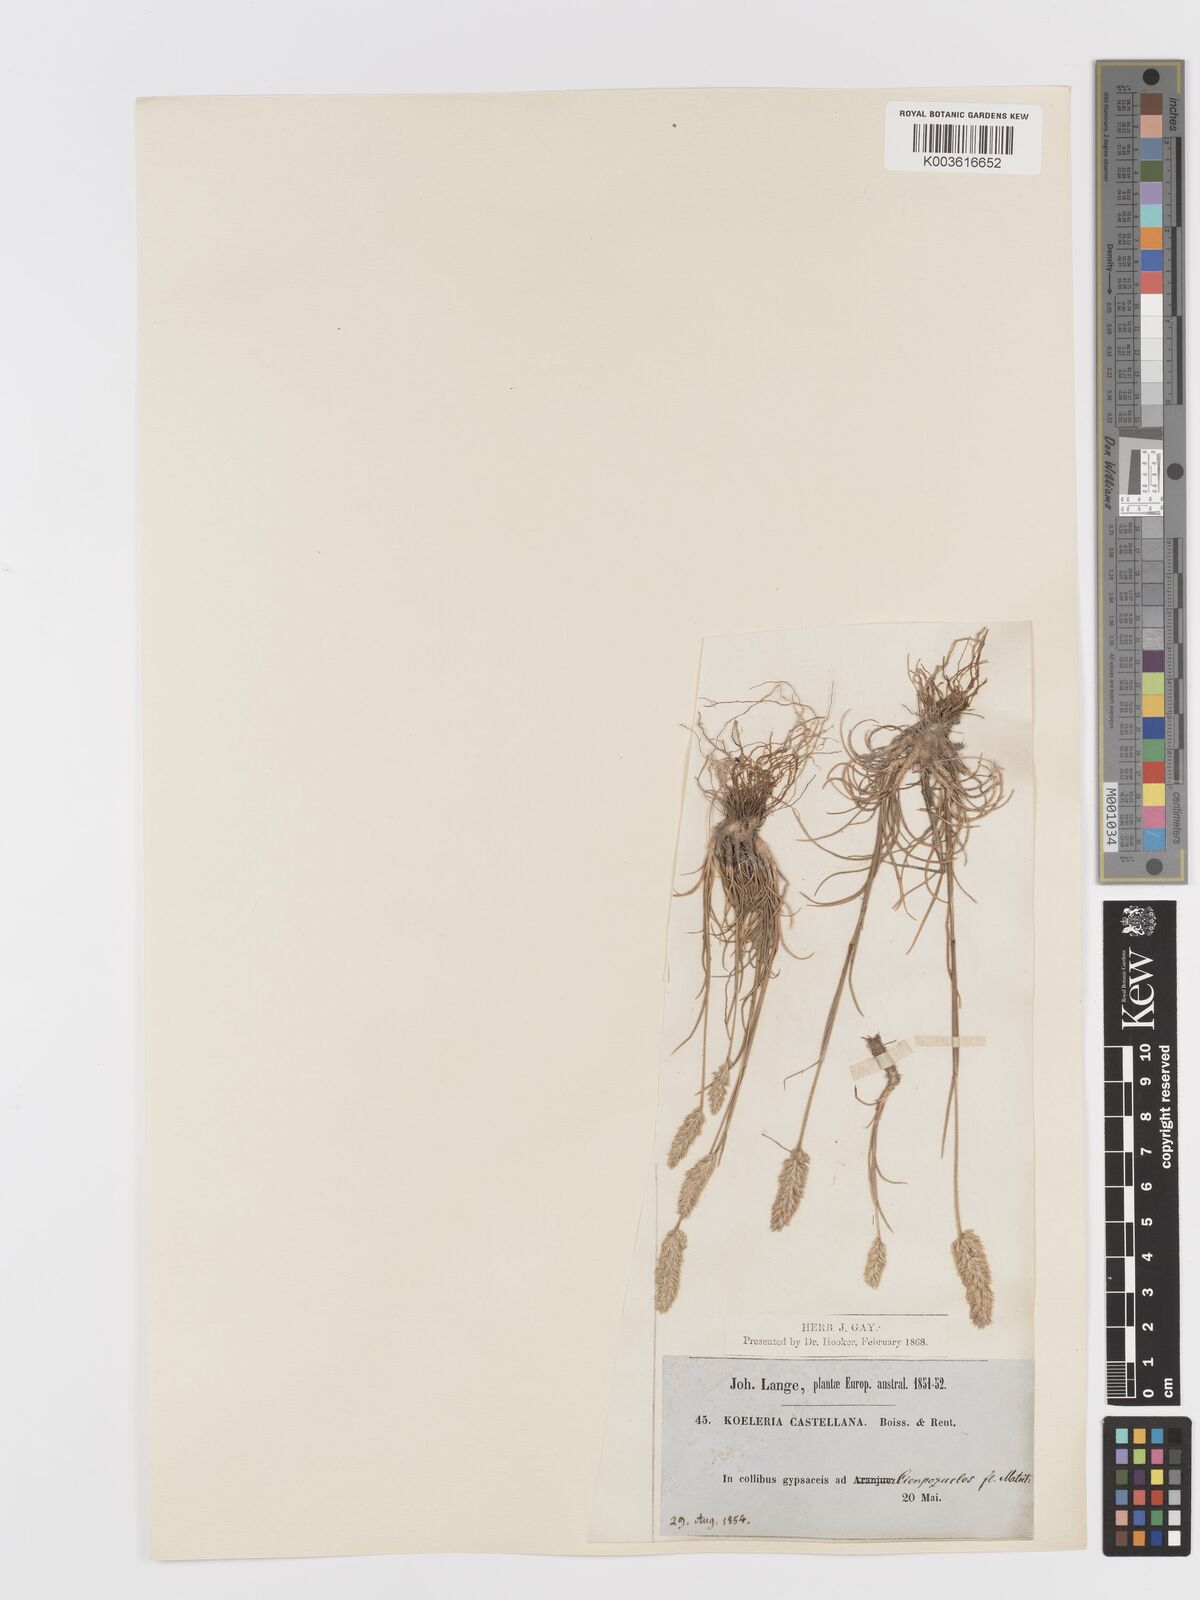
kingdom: Plantae
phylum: Tracheophyta
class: Liliopsida
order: Poales
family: Poaceae
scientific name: Poaceae
